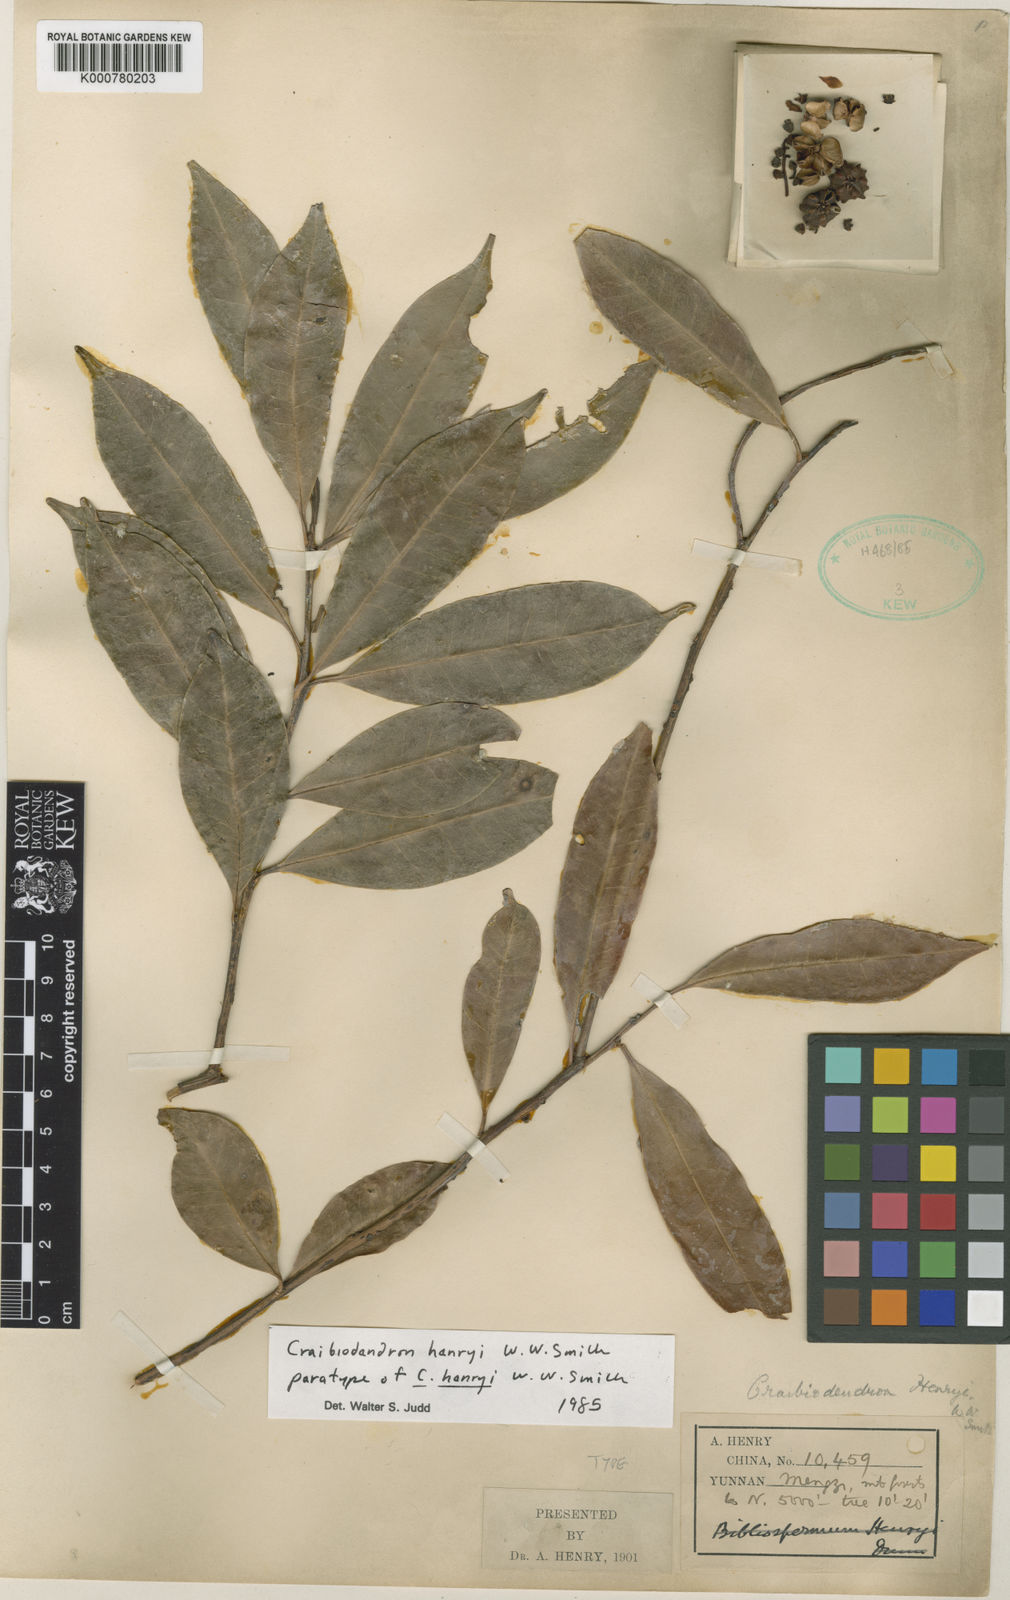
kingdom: Plantae
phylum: Tracheophyta
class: Magnoliopsida
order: Ericales
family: Ericaceae
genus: Craibiodendron
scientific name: Craibiodendron henryi
